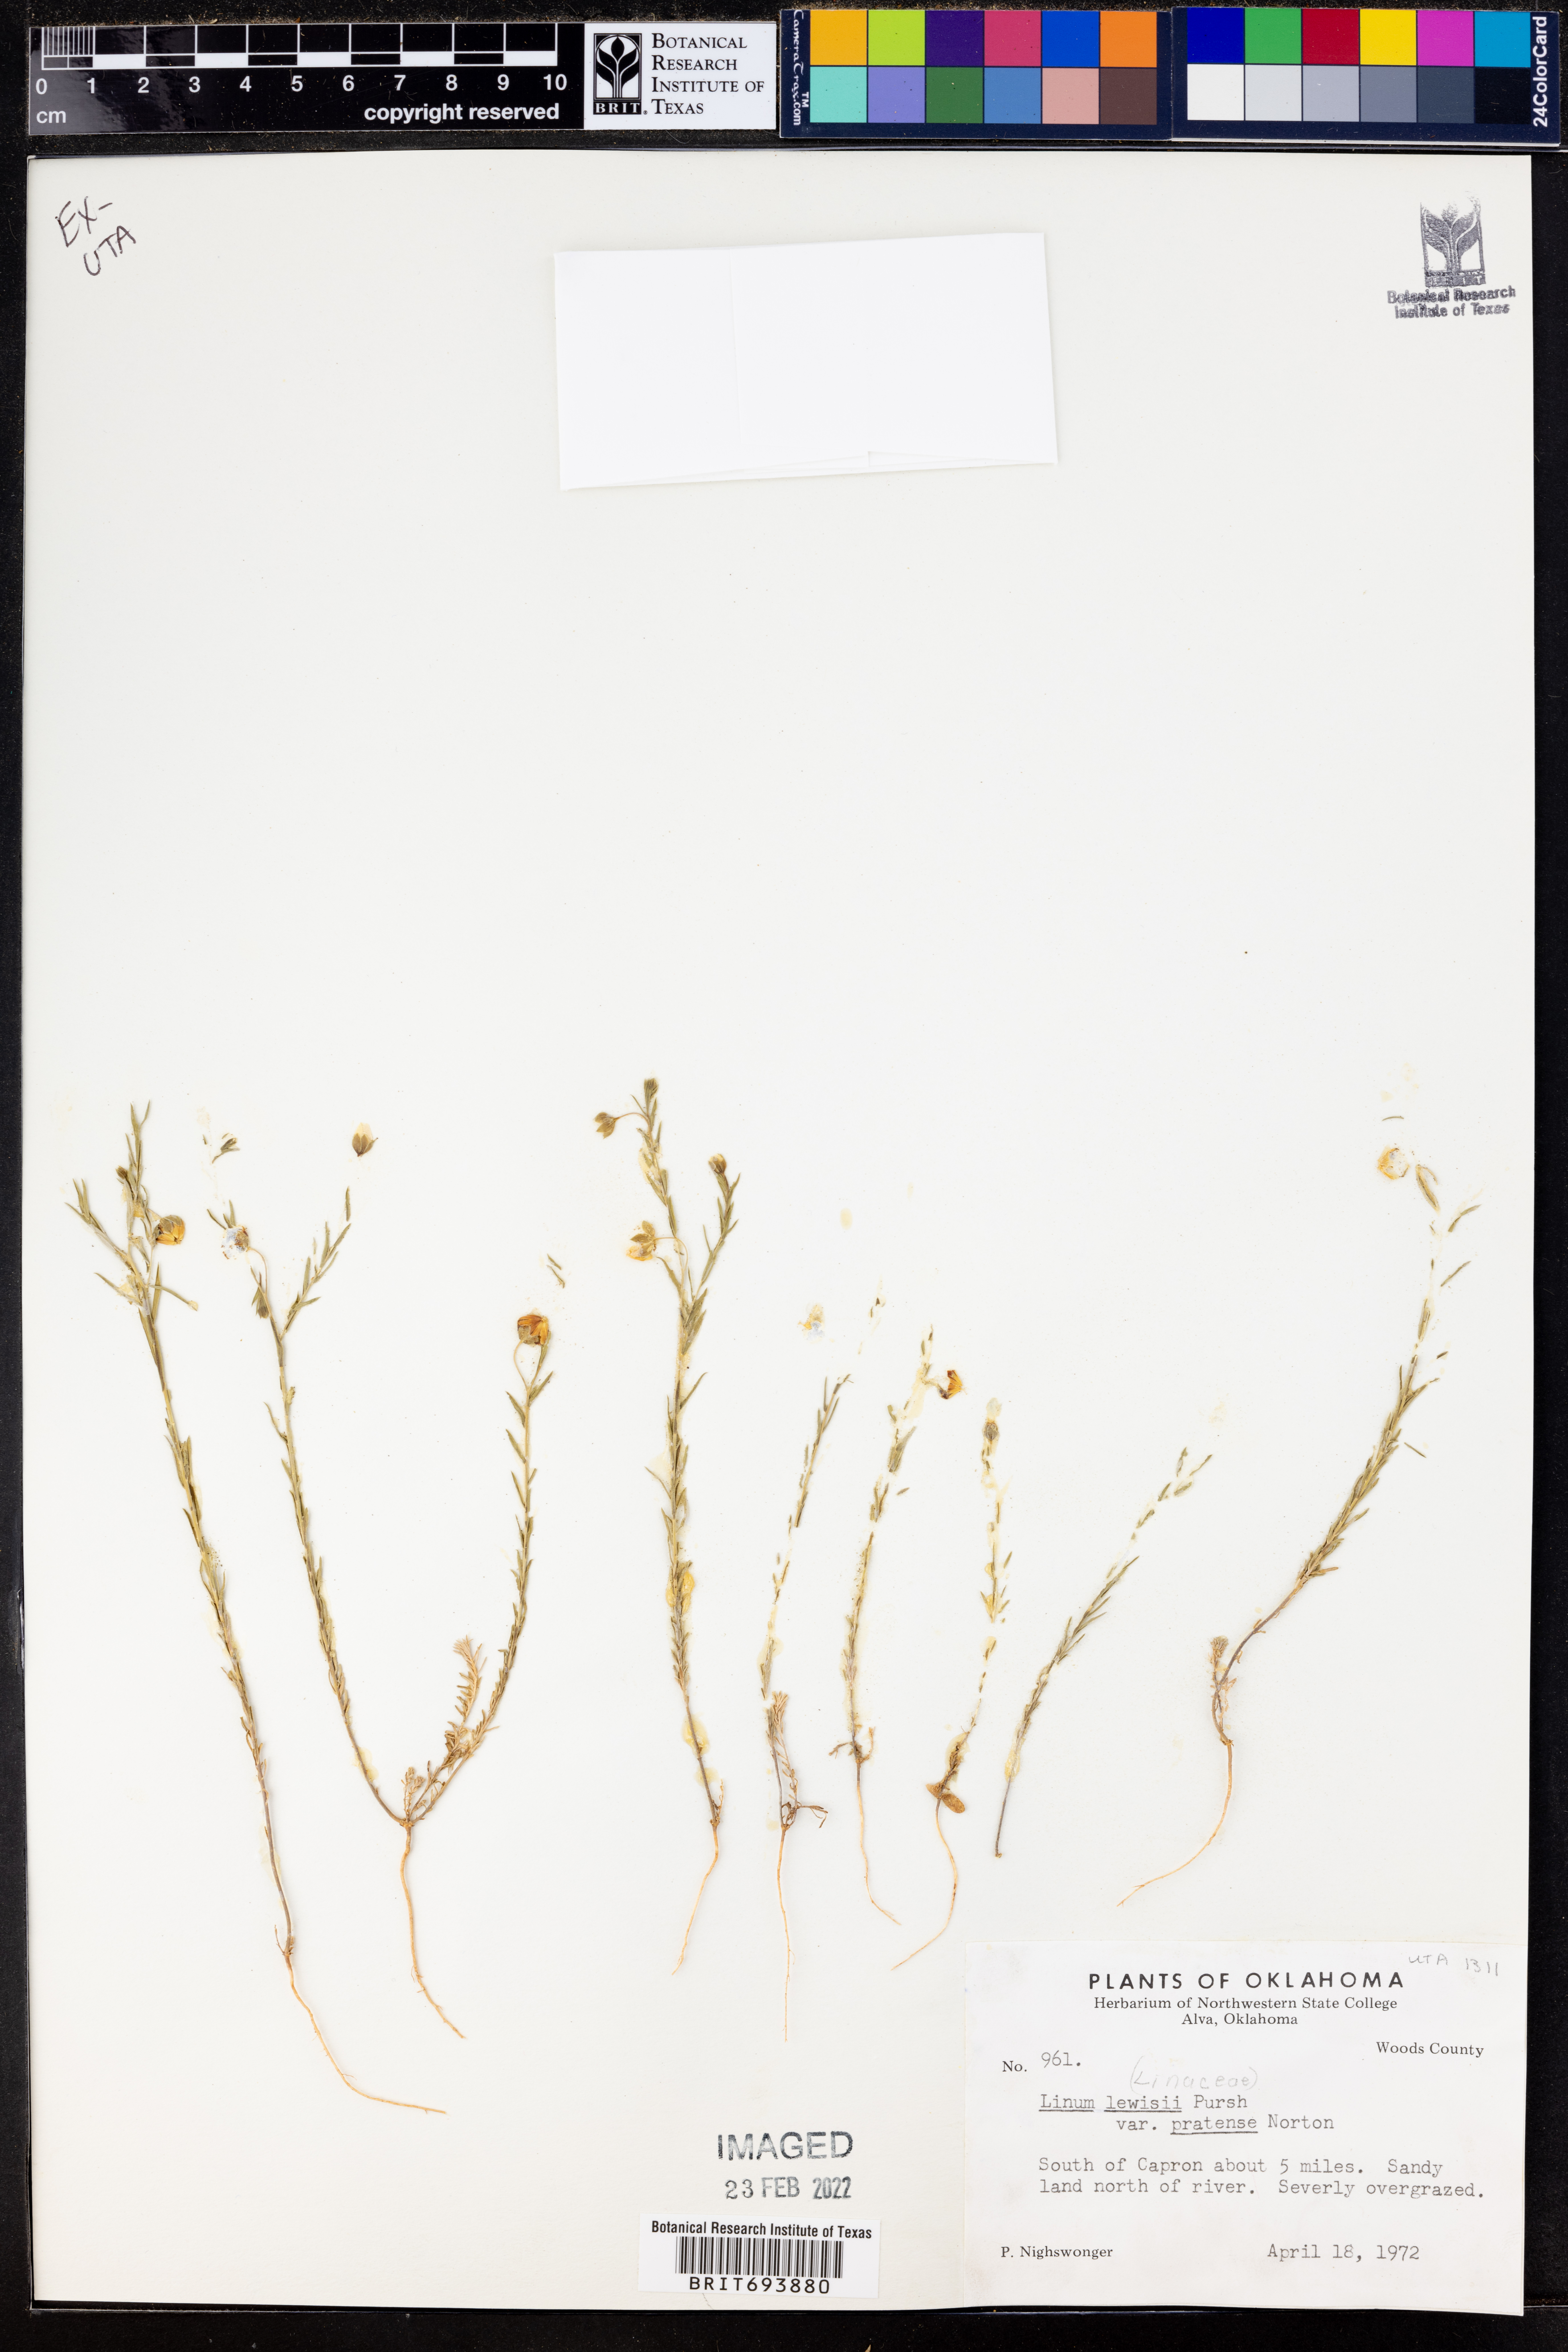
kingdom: Plantae
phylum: Tracheophyta
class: Magnoliopsida
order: Malpighiales
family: Linaceae
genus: Linum
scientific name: Linum pratense
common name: Norton's flax
